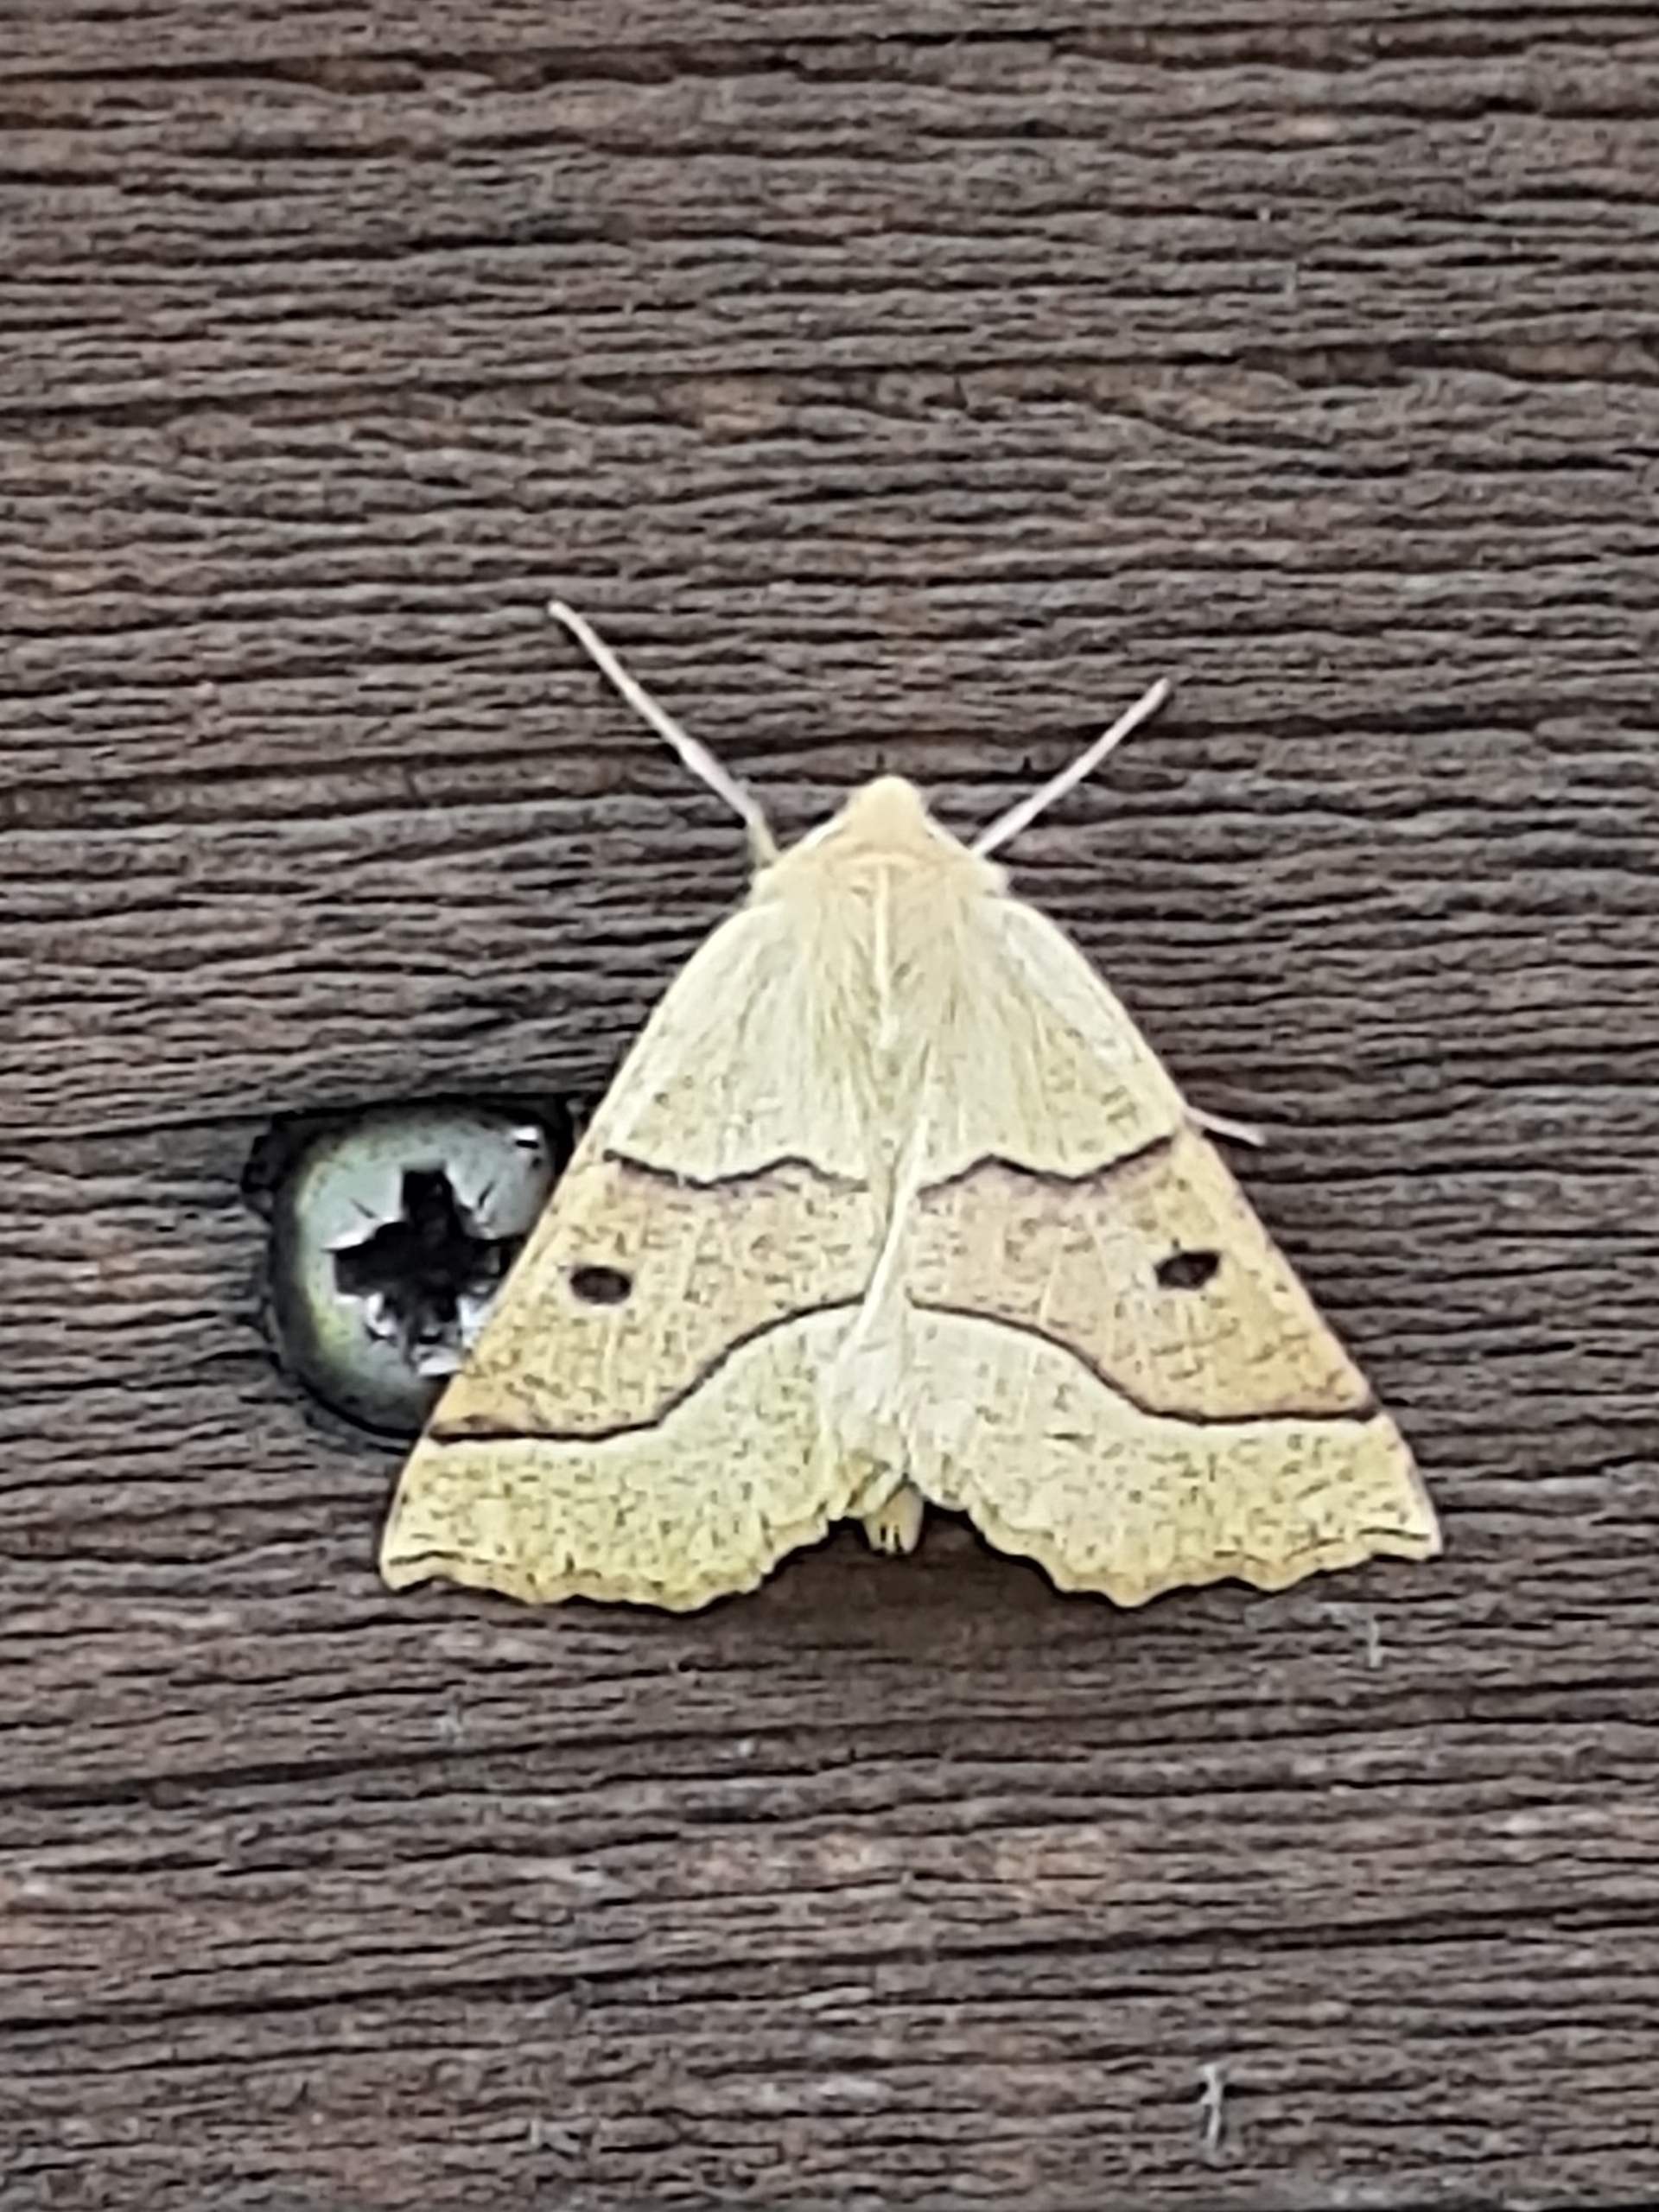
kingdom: Animalia
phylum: Arthropoda
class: Insecta
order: Lepidoptera
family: Geometridae
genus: Crocallis
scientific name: Crocallis elinguaria
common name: Okkergul rovmåler
